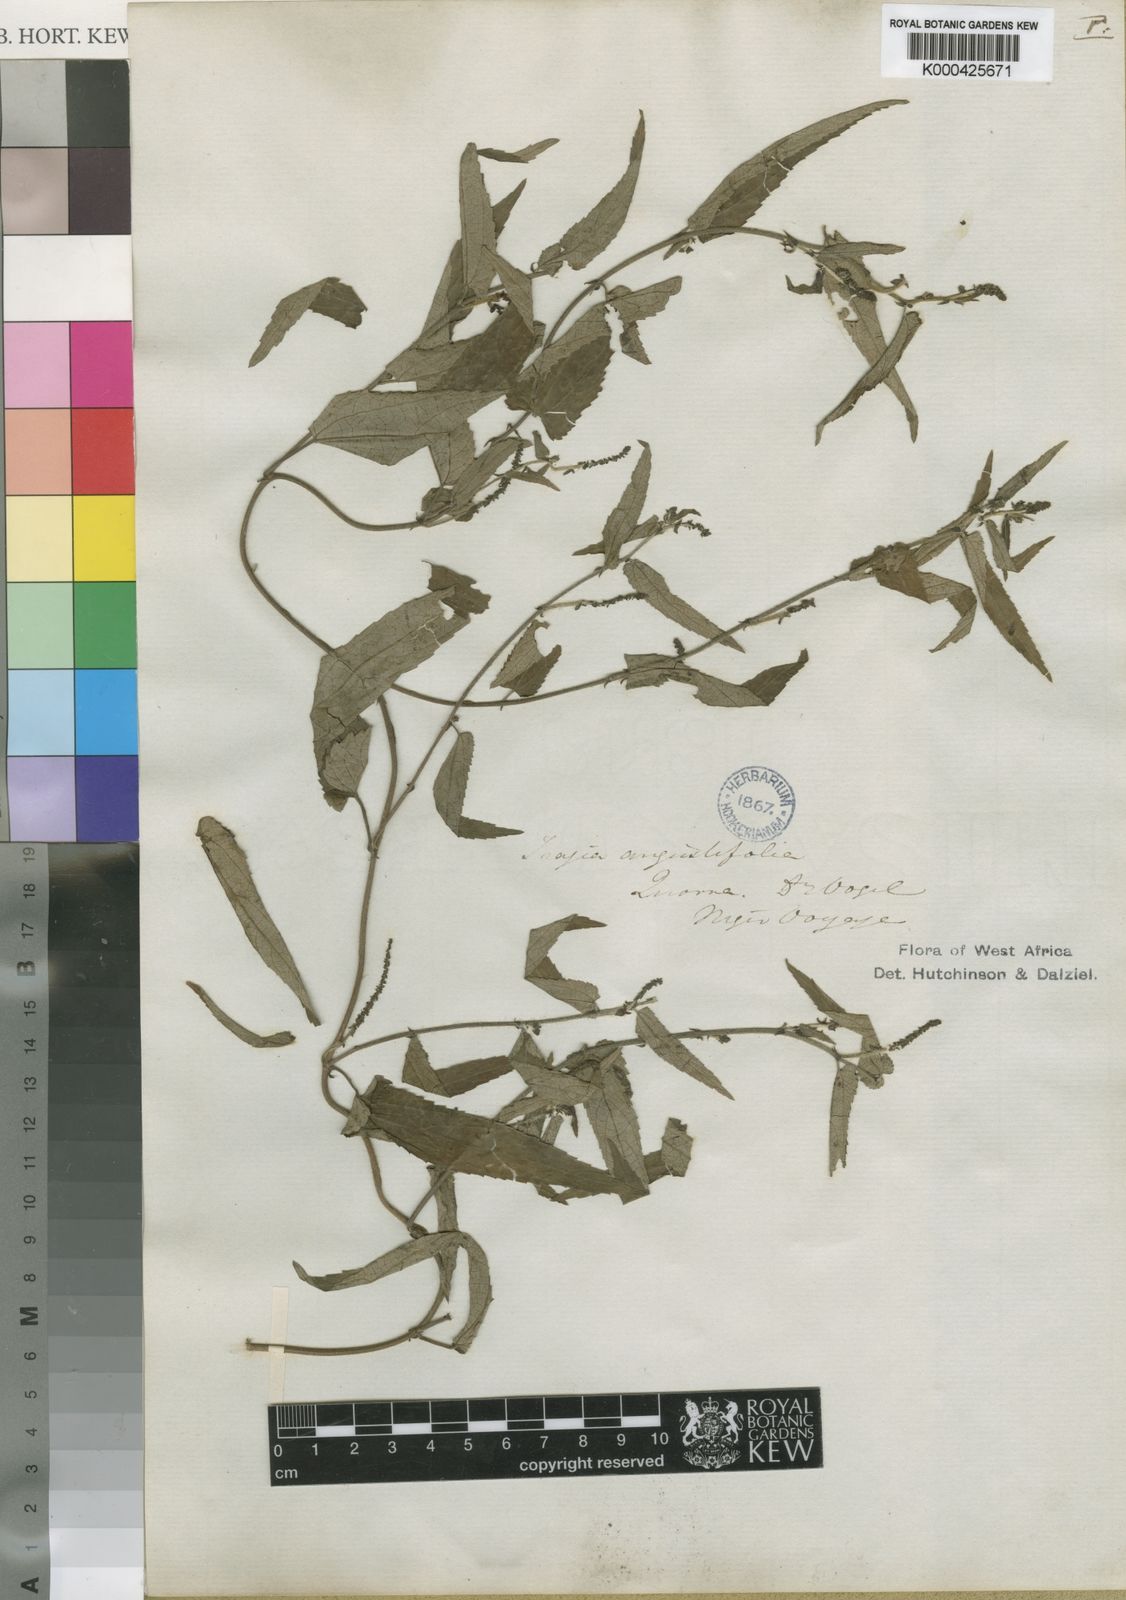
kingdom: Plantae
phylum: Tracheophyta
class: Magnoliopsida
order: Malpighiales
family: Euphorbiaceae
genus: Tragia
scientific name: Tragia vogelii
